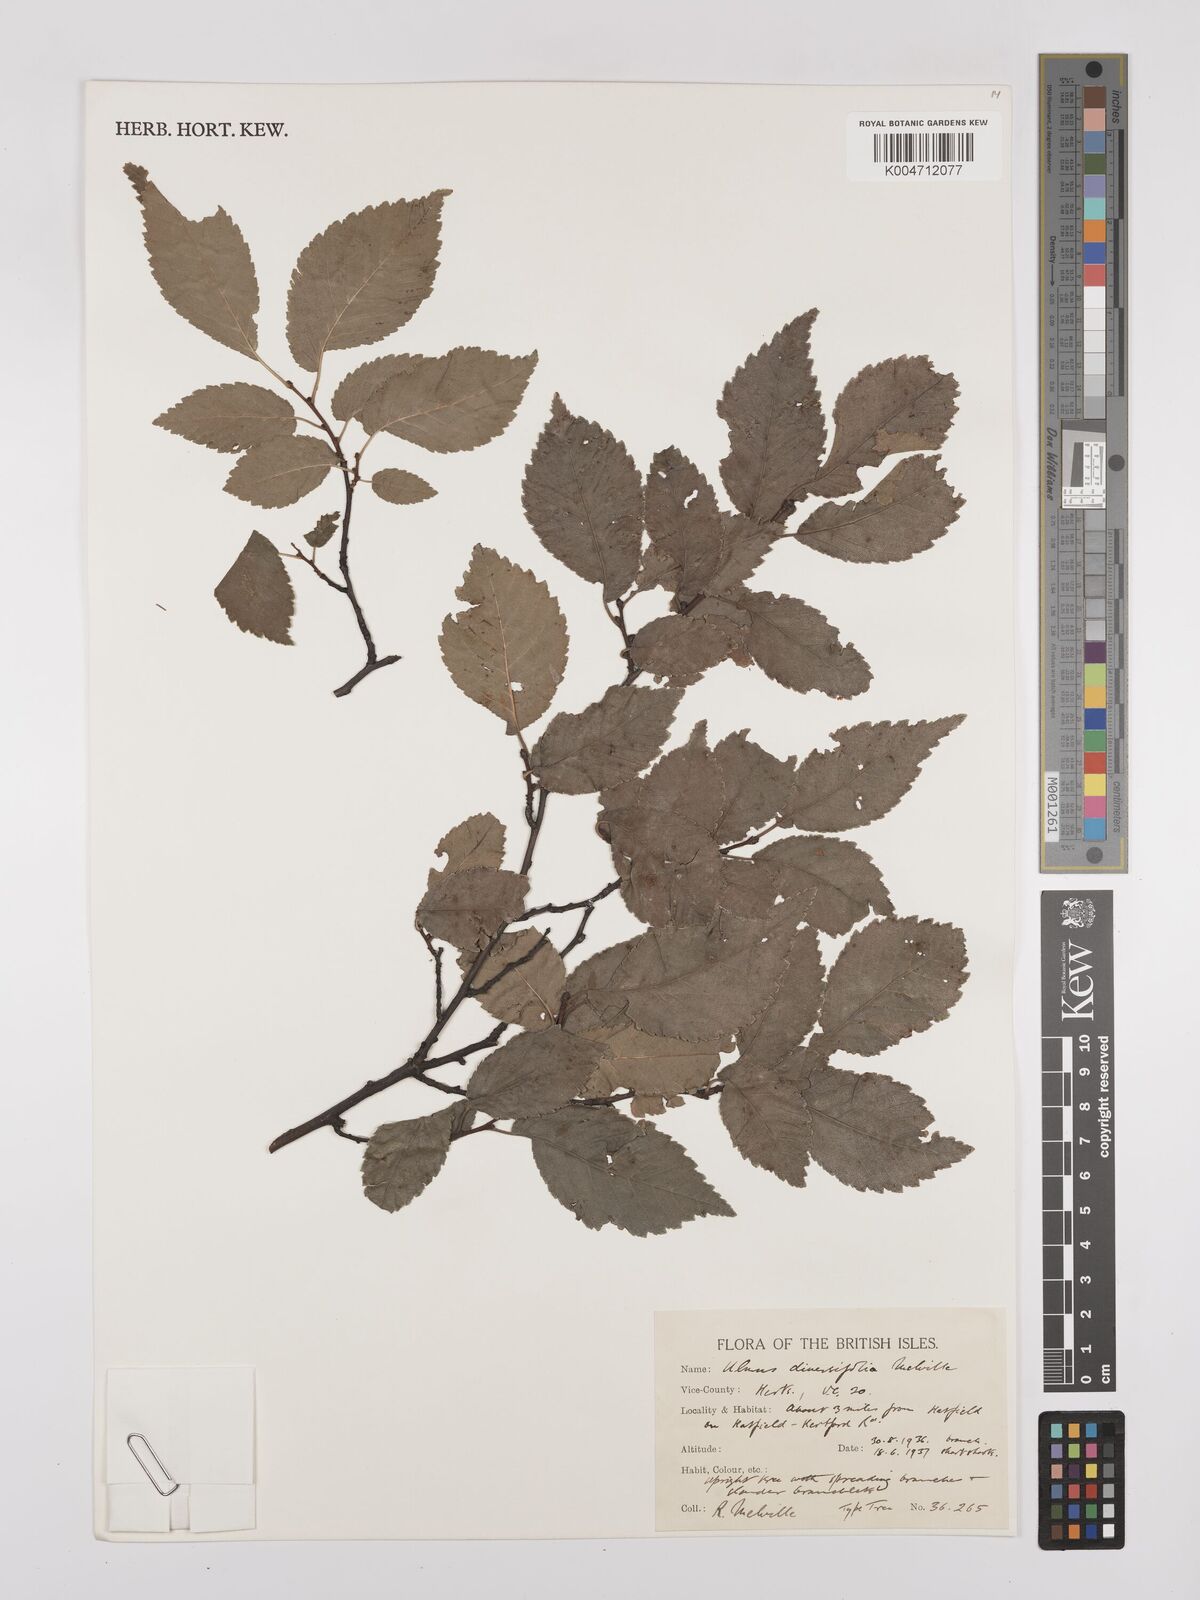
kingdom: Plantae
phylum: Tracheophyta
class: Magnoliopsida
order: Rosales
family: Ulmaceae
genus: Ulmus
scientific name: Ulmus minor
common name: Small-leaved elm
